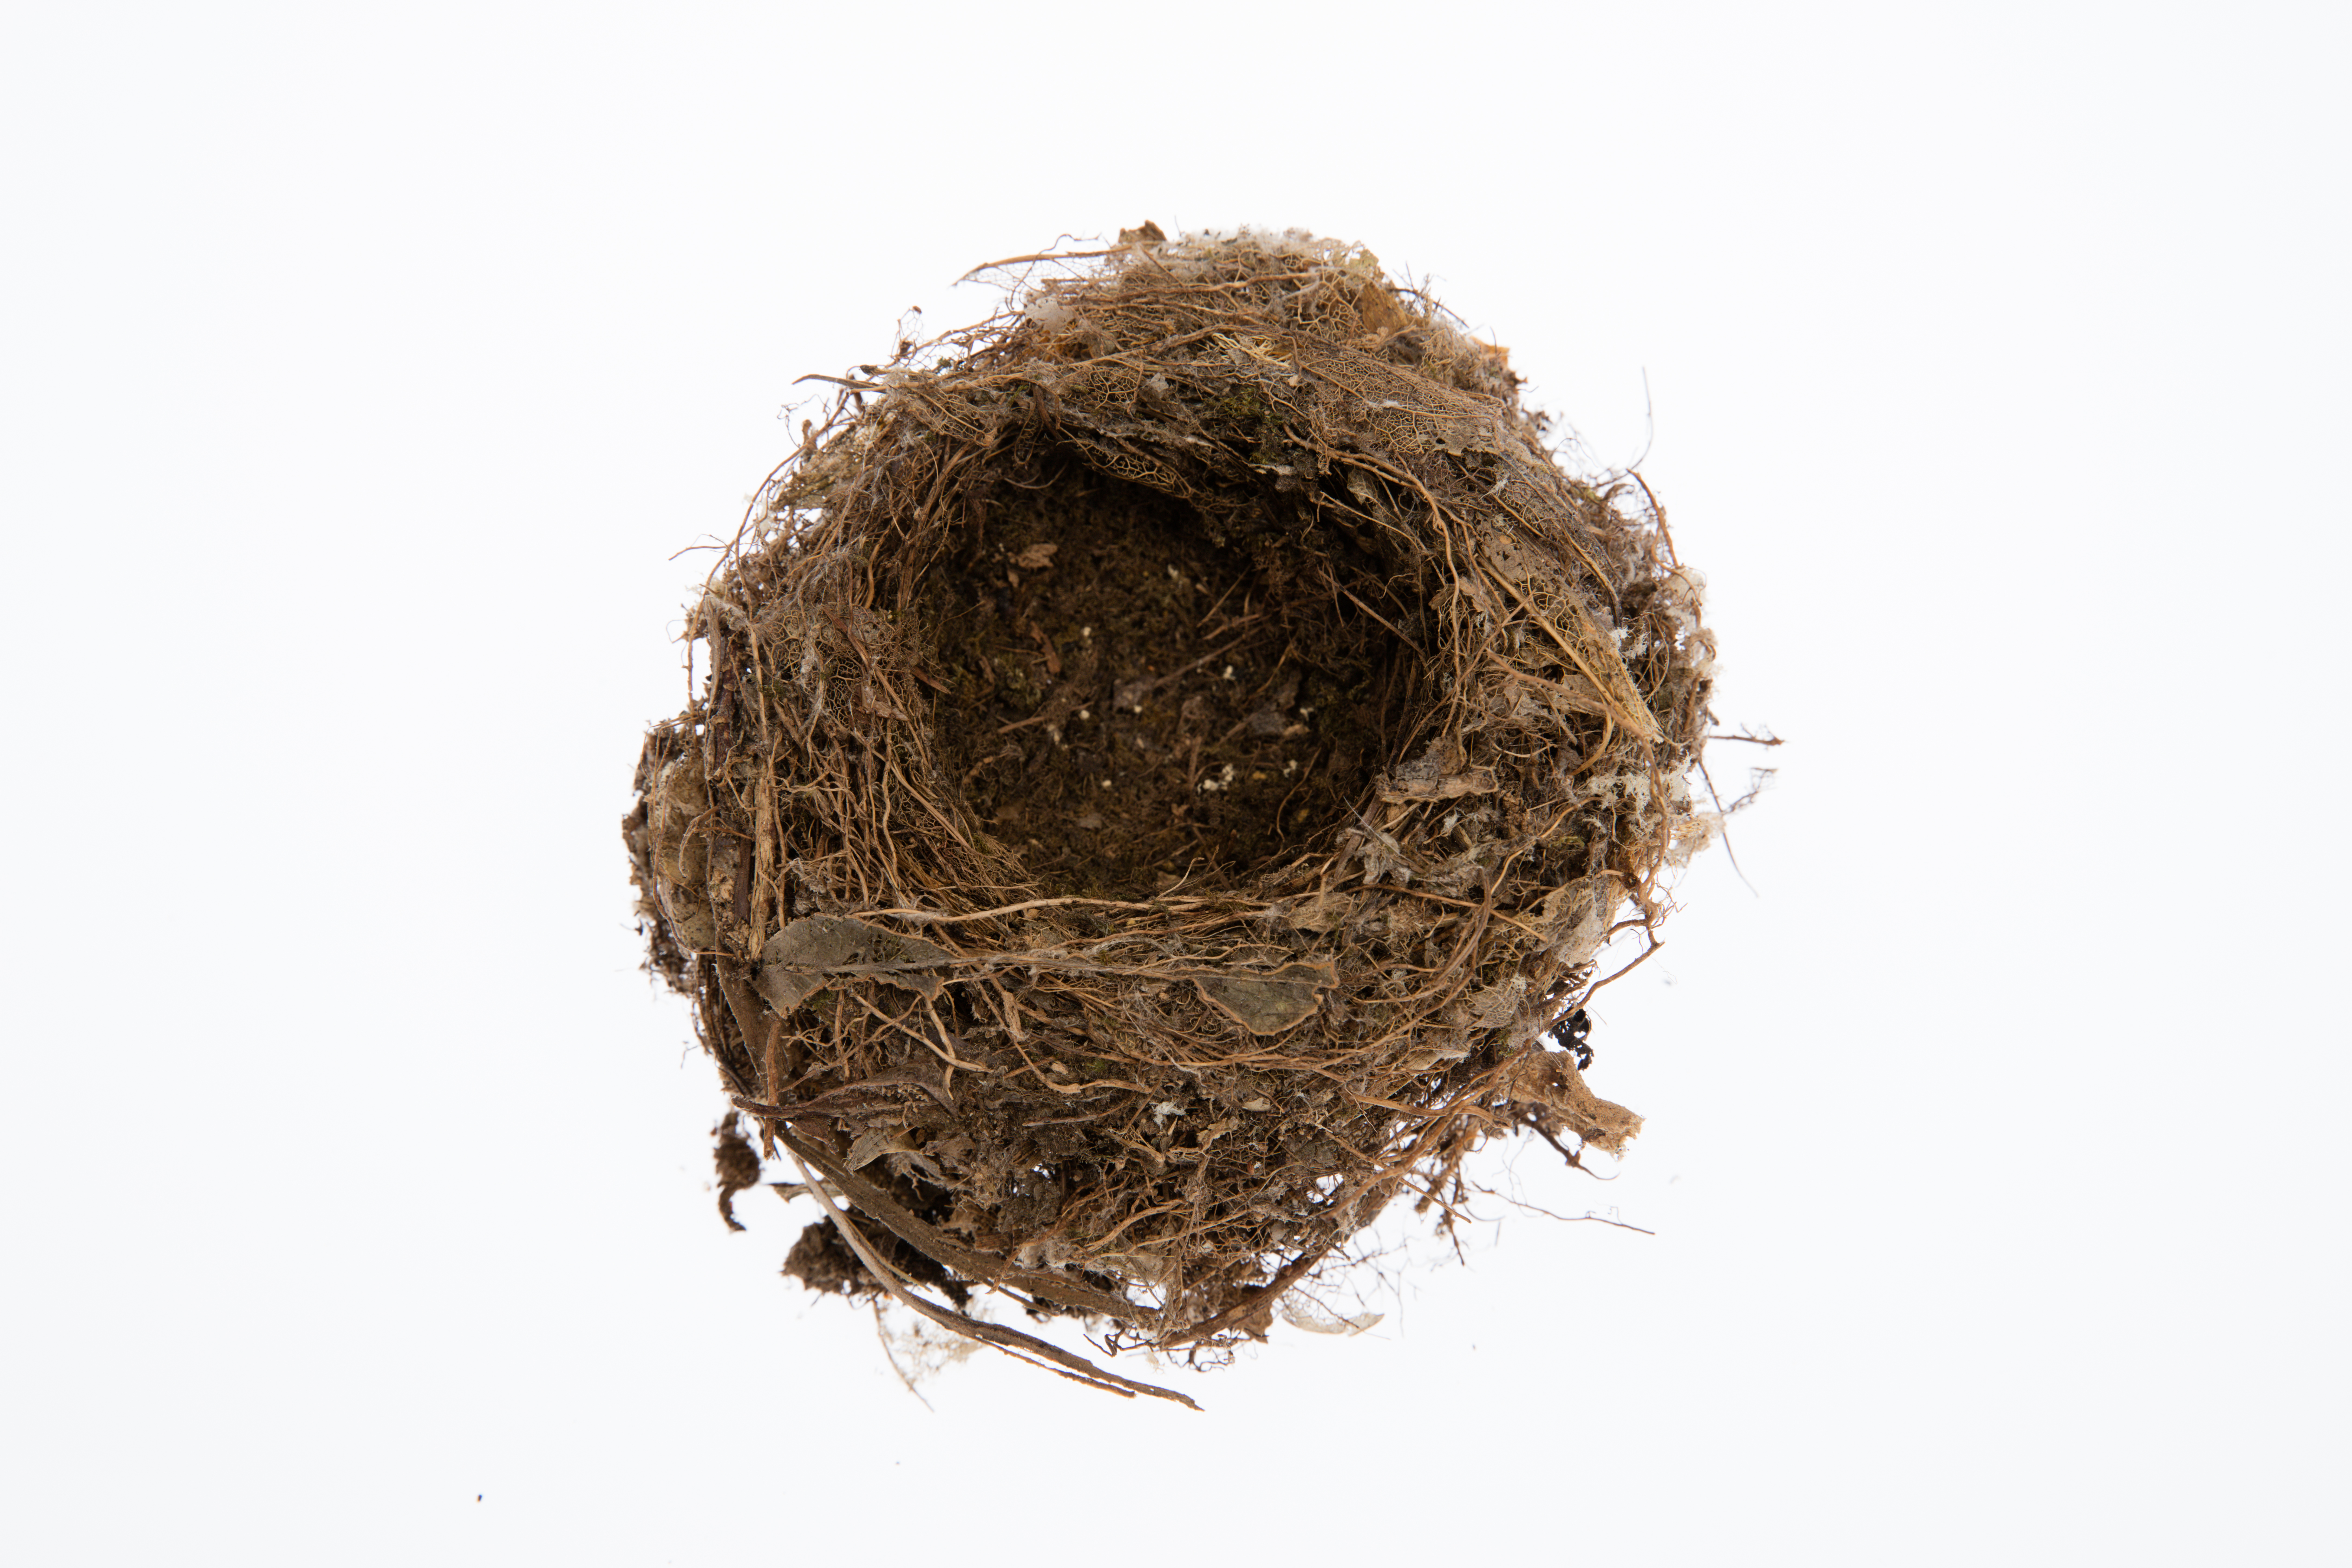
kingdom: Animalia
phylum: Chordata
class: Aves
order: Passeriformes
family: Petroicidae
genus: Petroica
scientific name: Petroica traversi
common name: Black robin
